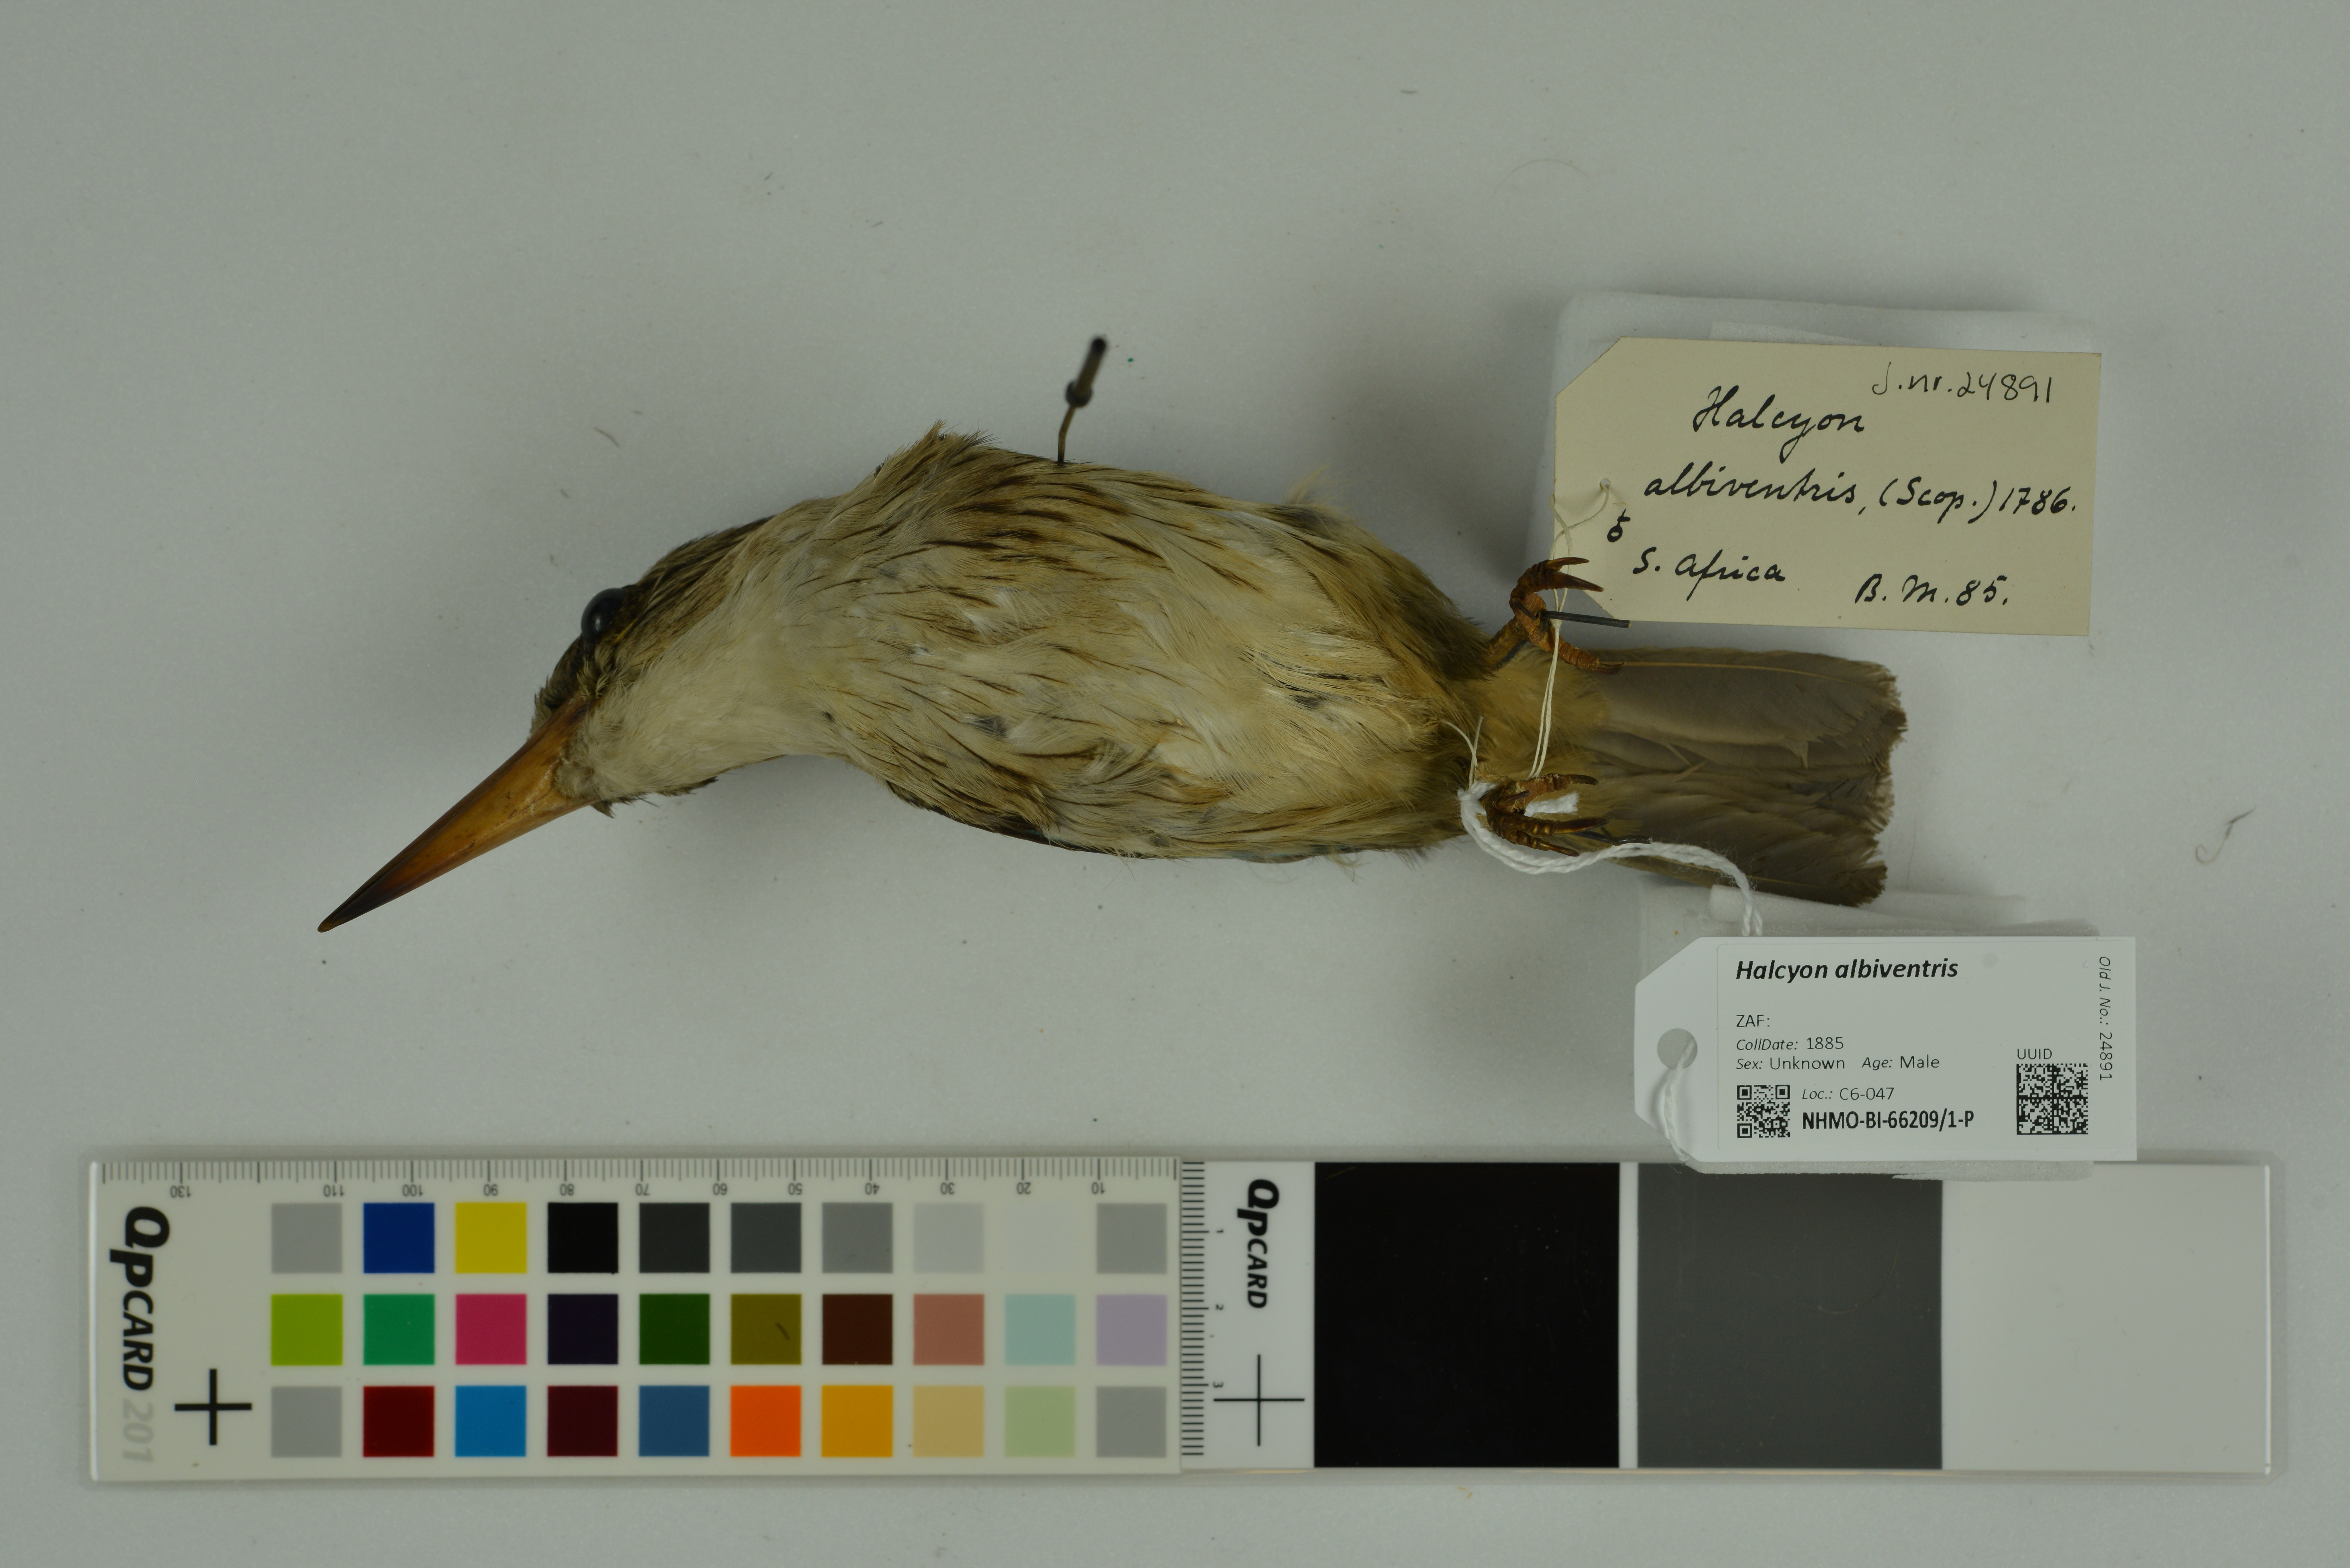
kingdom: Animalia
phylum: Chordata
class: Aves
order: Coraciiformes
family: Alcedinidae
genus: Halcyon
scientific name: Halcyon albiventris
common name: Brown-hooded kingfisher
